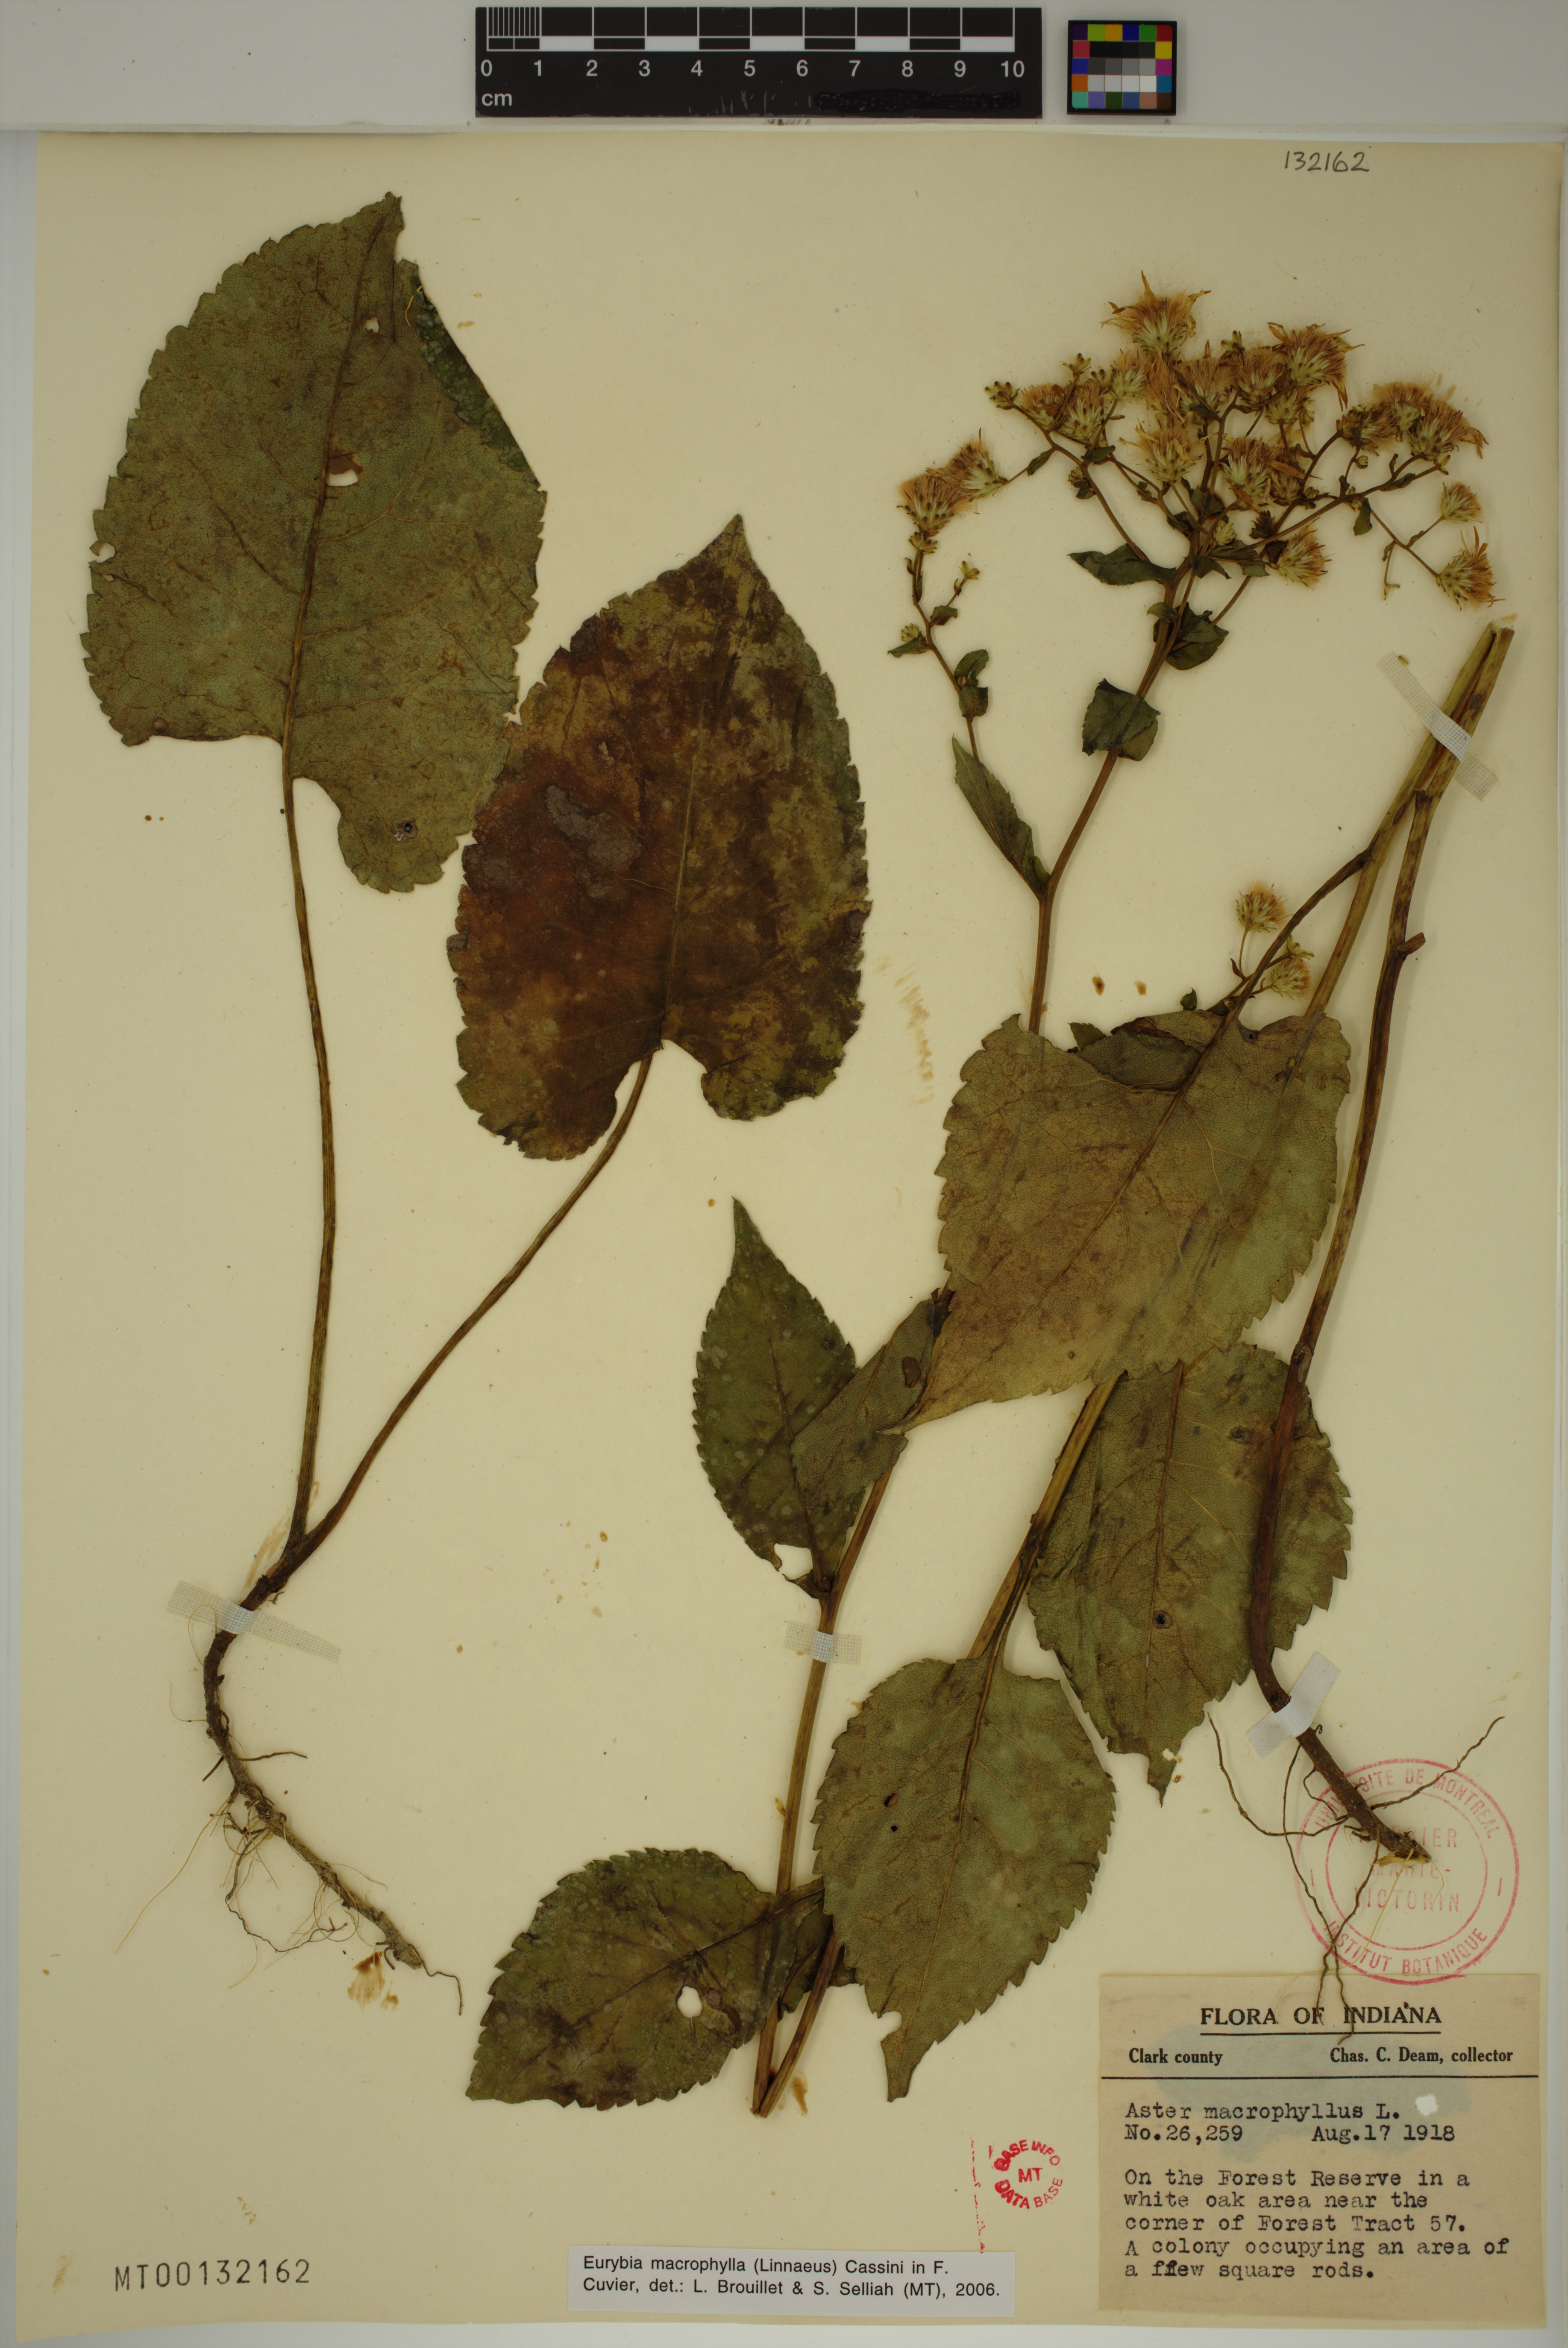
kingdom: Plantae
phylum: Tracheophyta
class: Magnoliopsida
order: Asterales
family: Asteraceae
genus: Eurybia
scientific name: Eurybia macrophylla
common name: Big-leaved aster
